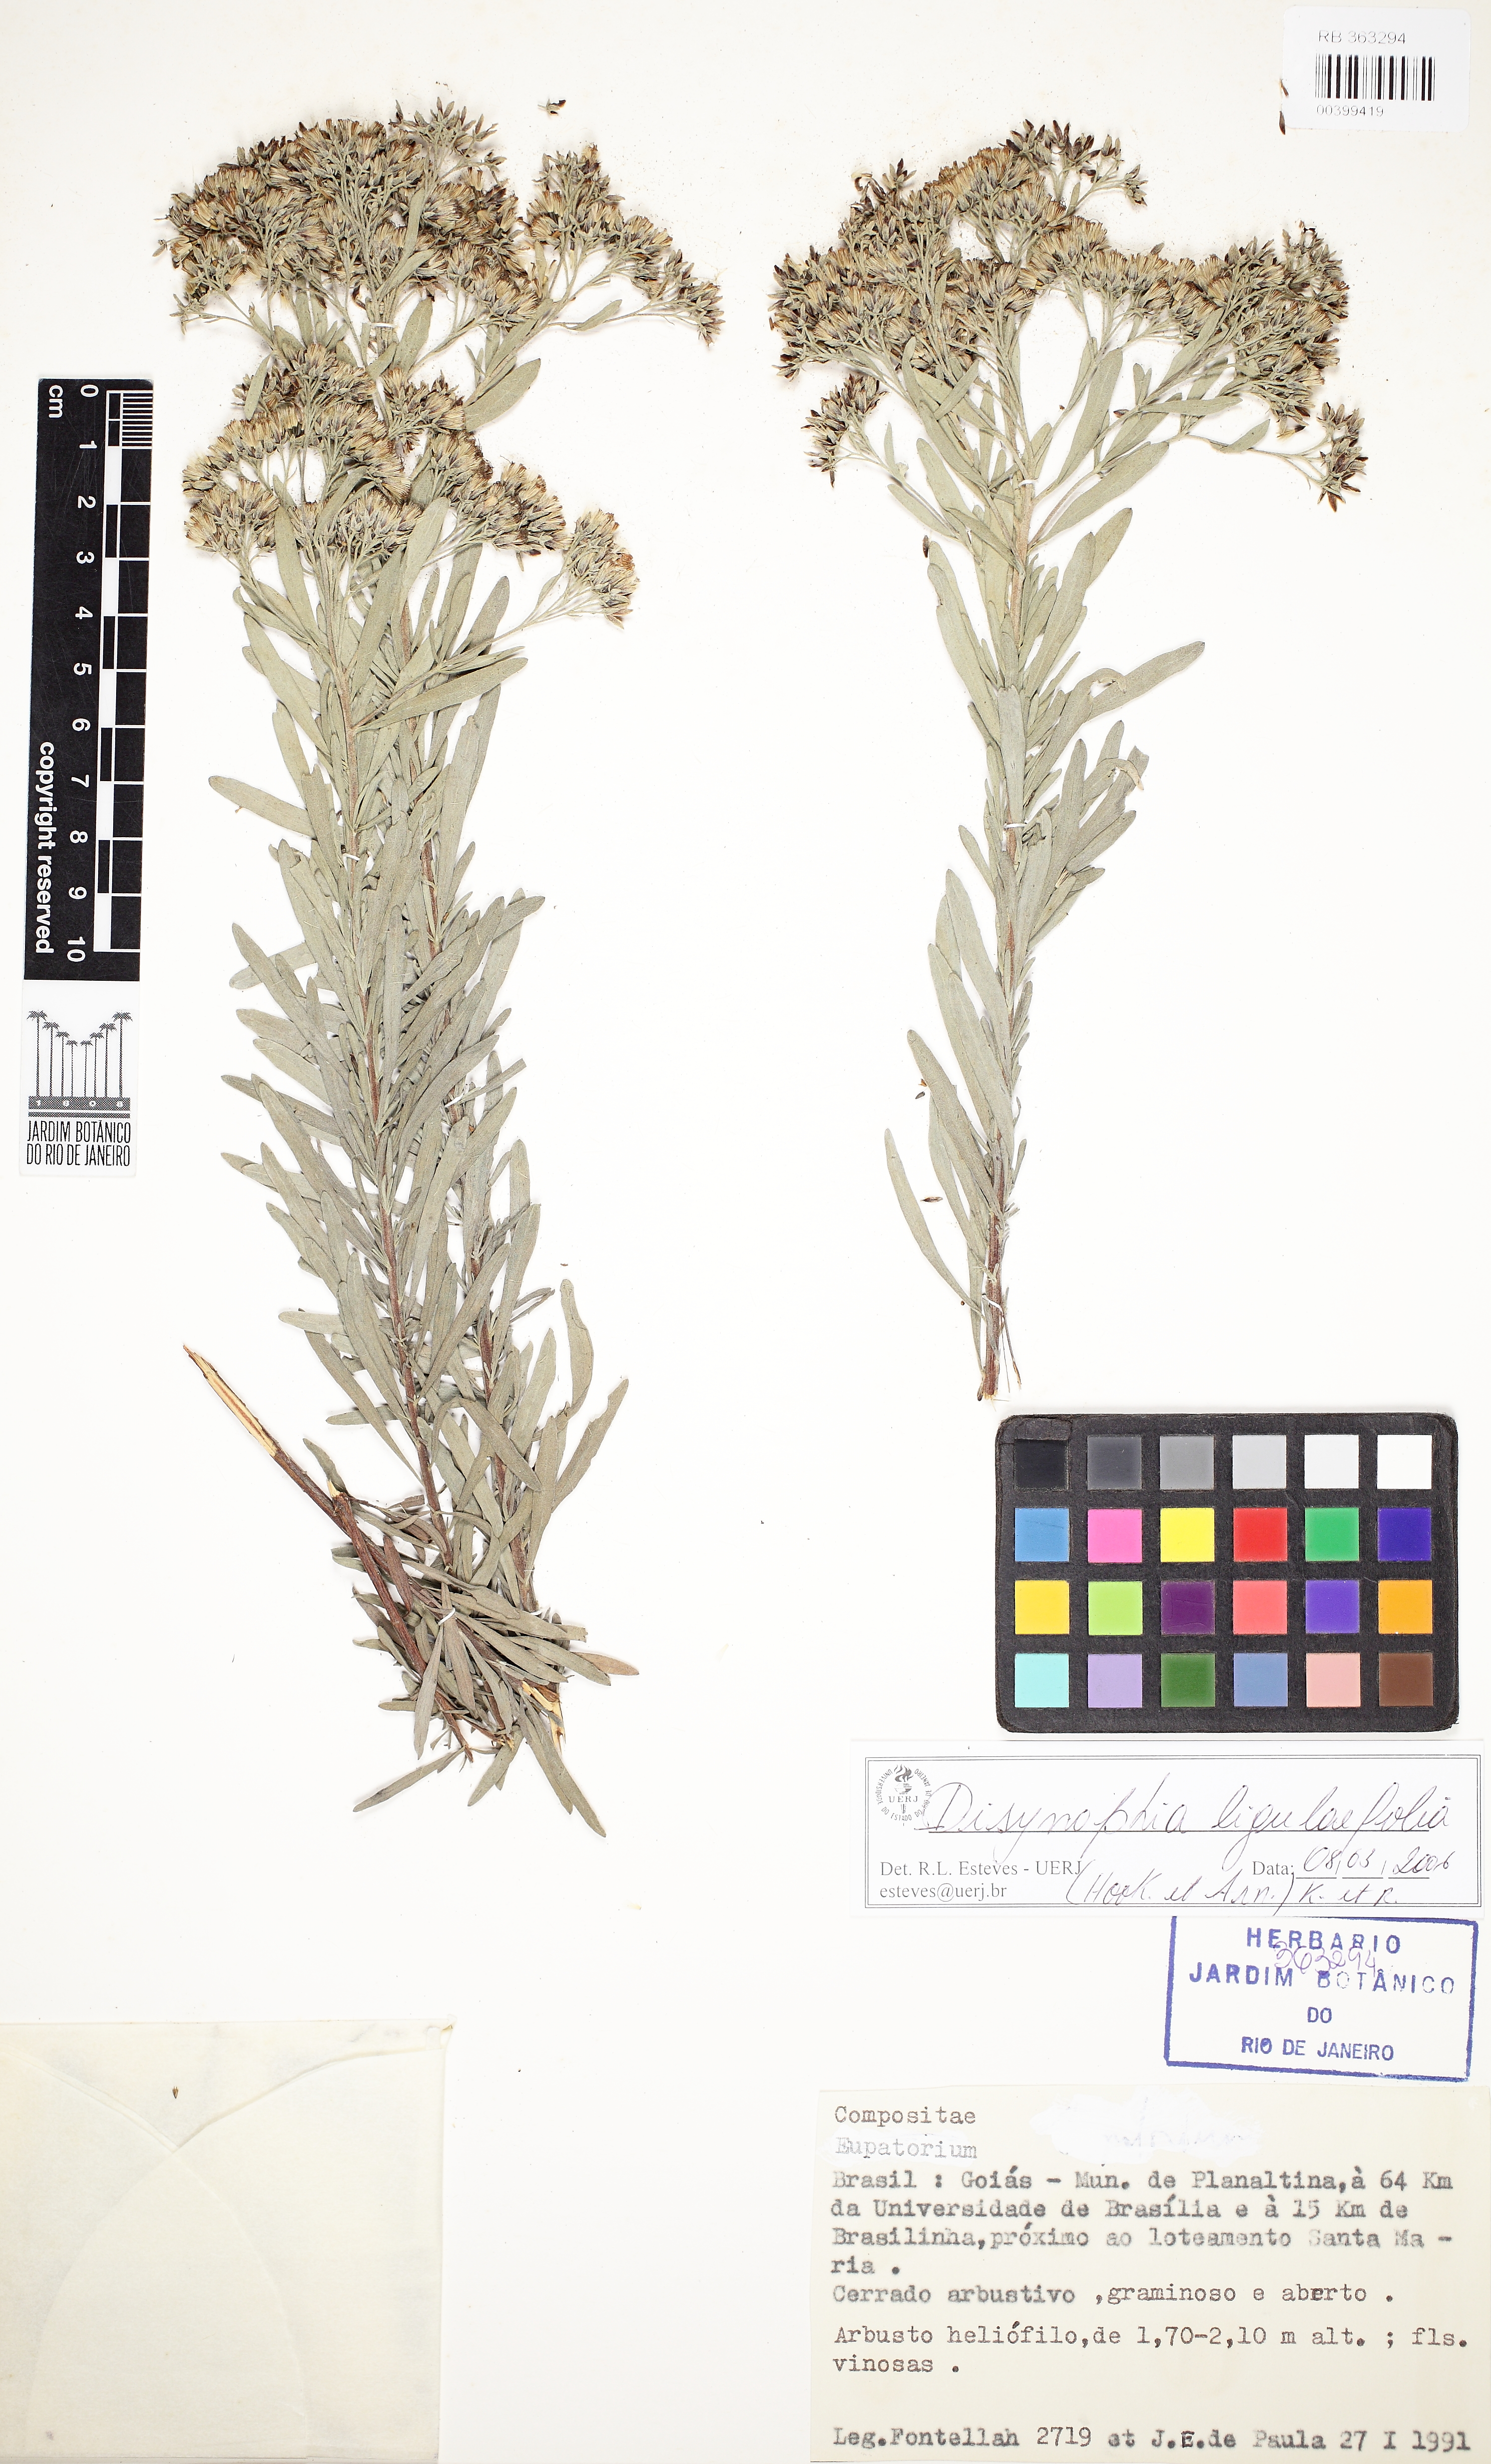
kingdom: Plantae
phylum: Tracheophyta
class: Magnoliopsida
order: Asterales
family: Asteraceae
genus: Disynaphia
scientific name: Disynaphia ligulifolia
